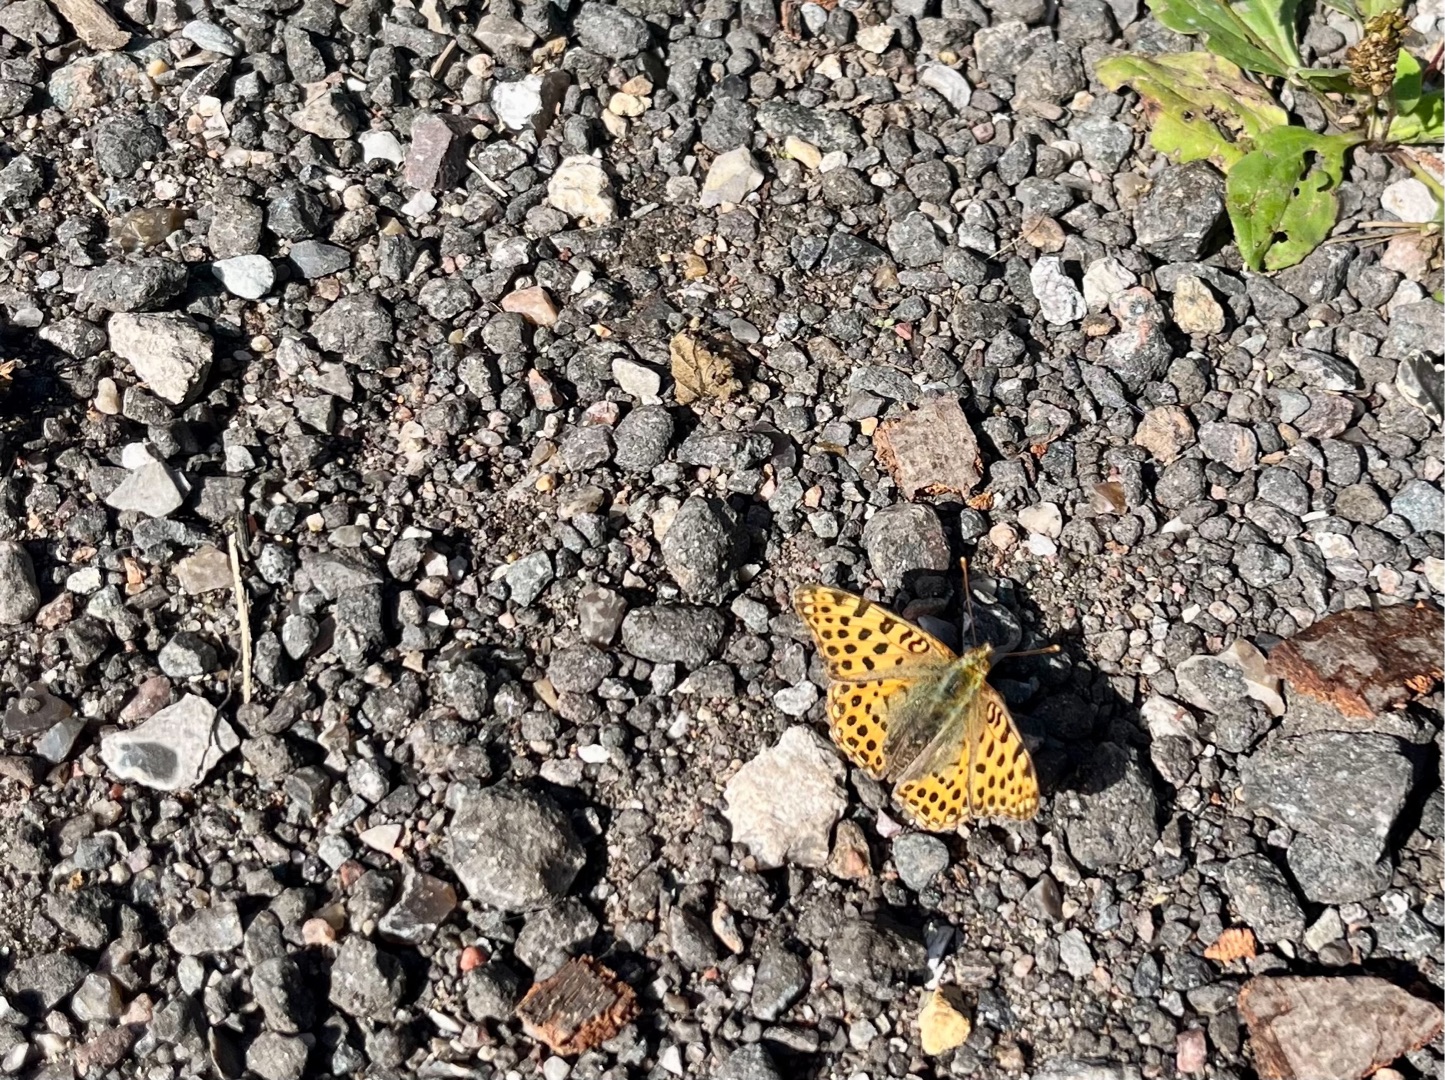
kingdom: Animalia
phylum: Arthropoda
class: Insecta
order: Lepidoptera
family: Nymphalidae
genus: Issoria
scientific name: Issoria lathonia
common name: Storplettet perlemorsommerfugl
